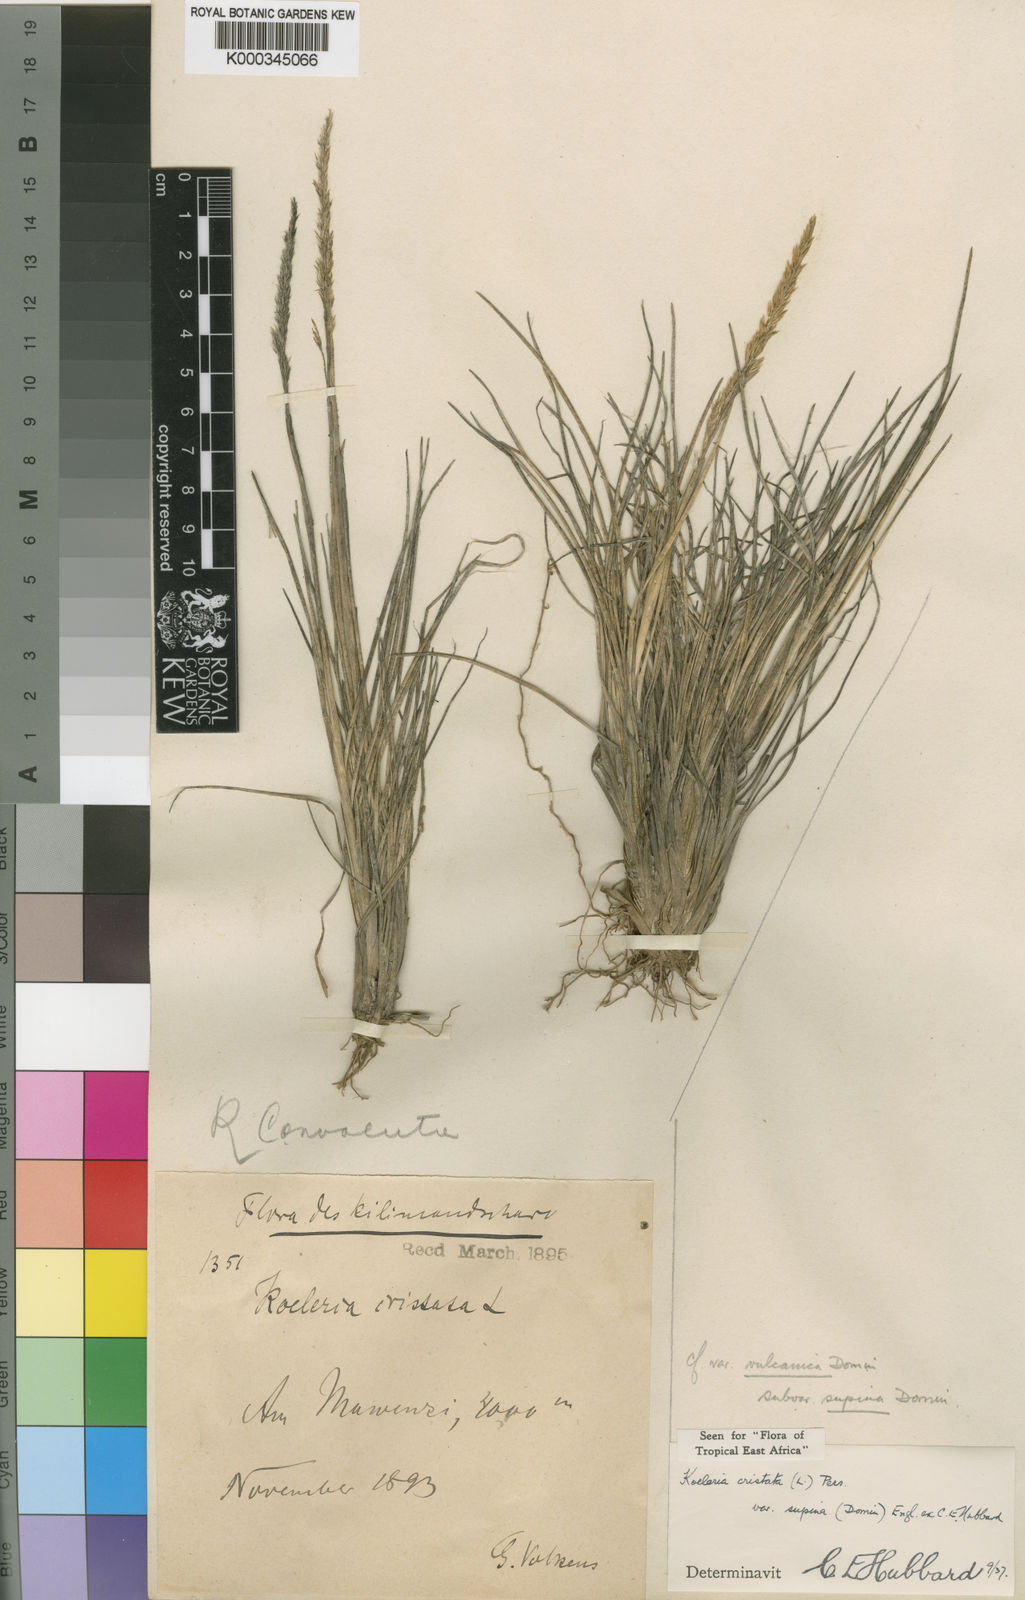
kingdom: Plantae
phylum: Tracheophyta
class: Liliopsida
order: Poales
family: Poaceae
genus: Koeleria
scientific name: Koeleria capensis
